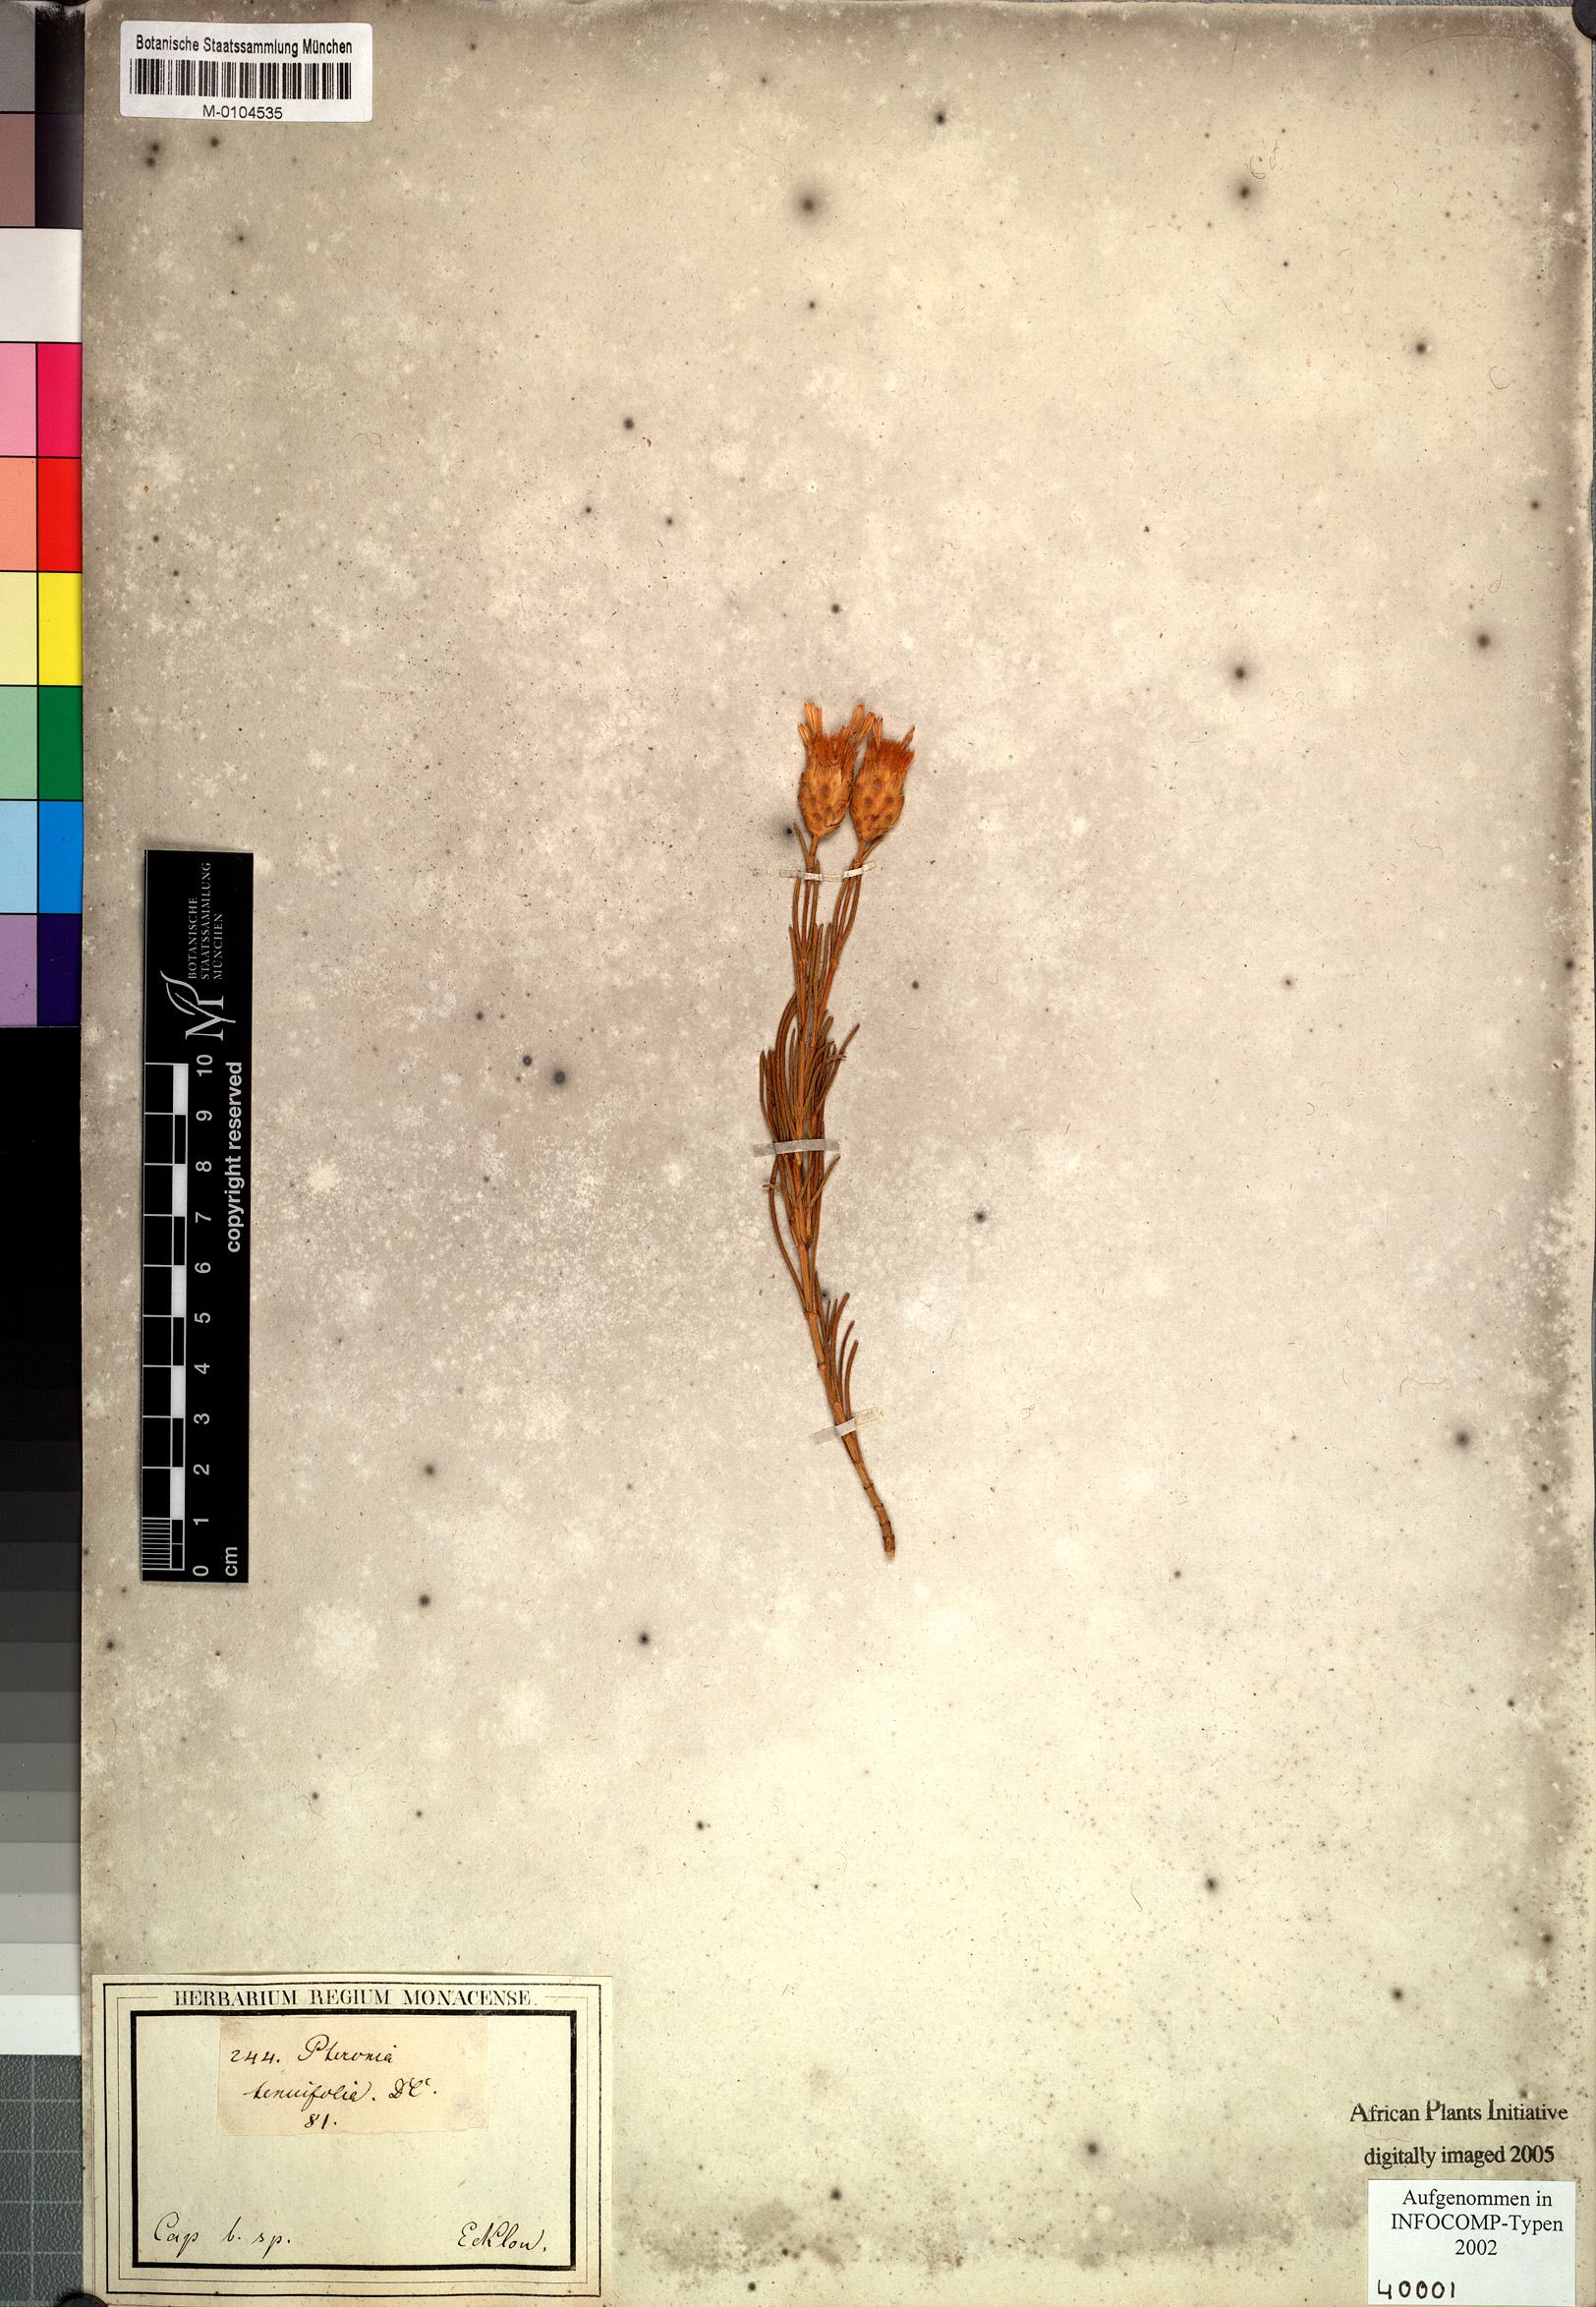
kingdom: Plantae
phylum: Tracheophyta
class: Magnoliopsida
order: Asterales
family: Asteraceae
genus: Pteronia
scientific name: Pteronia tenuifolia
